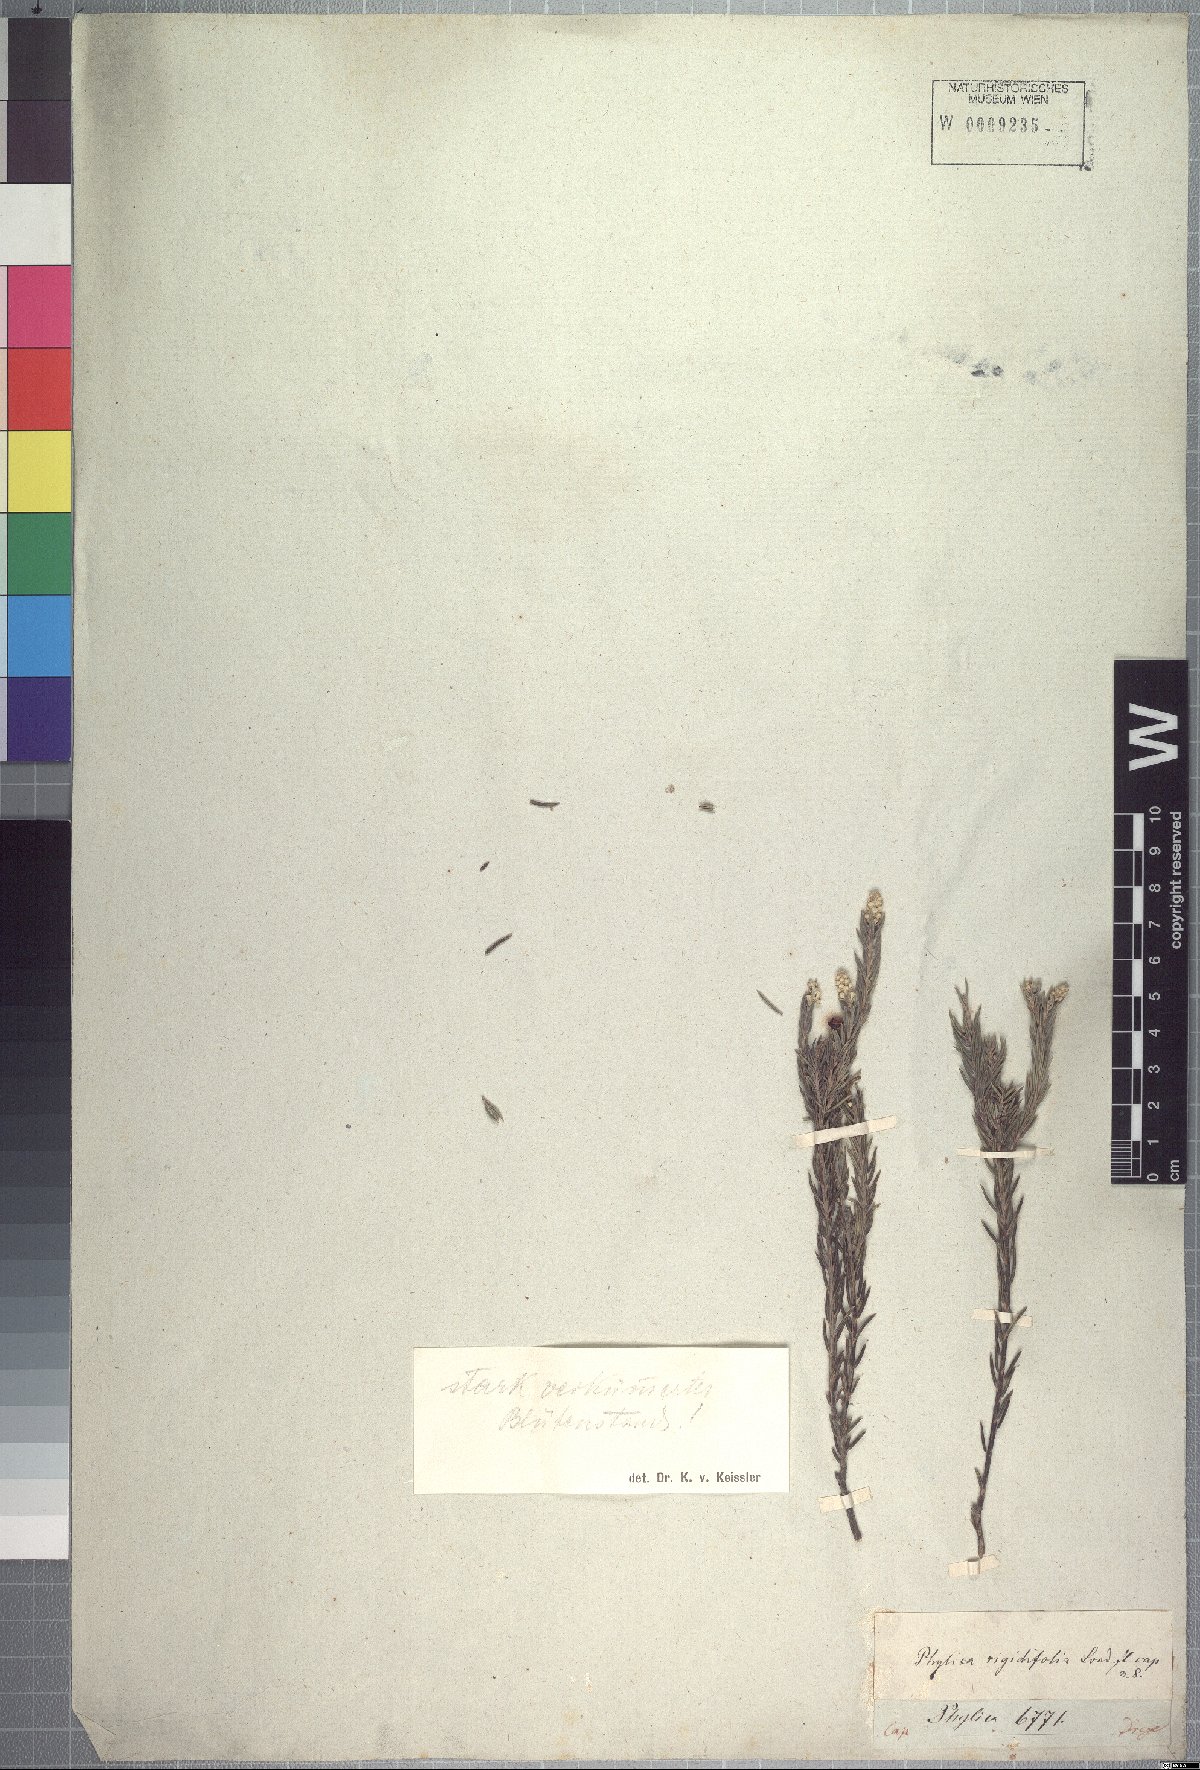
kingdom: Plantae
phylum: Tracheophyta
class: Magnoliopsida
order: Rosales
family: Rhamnaceae
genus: Phylica
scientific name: Phylica rigidifolia
